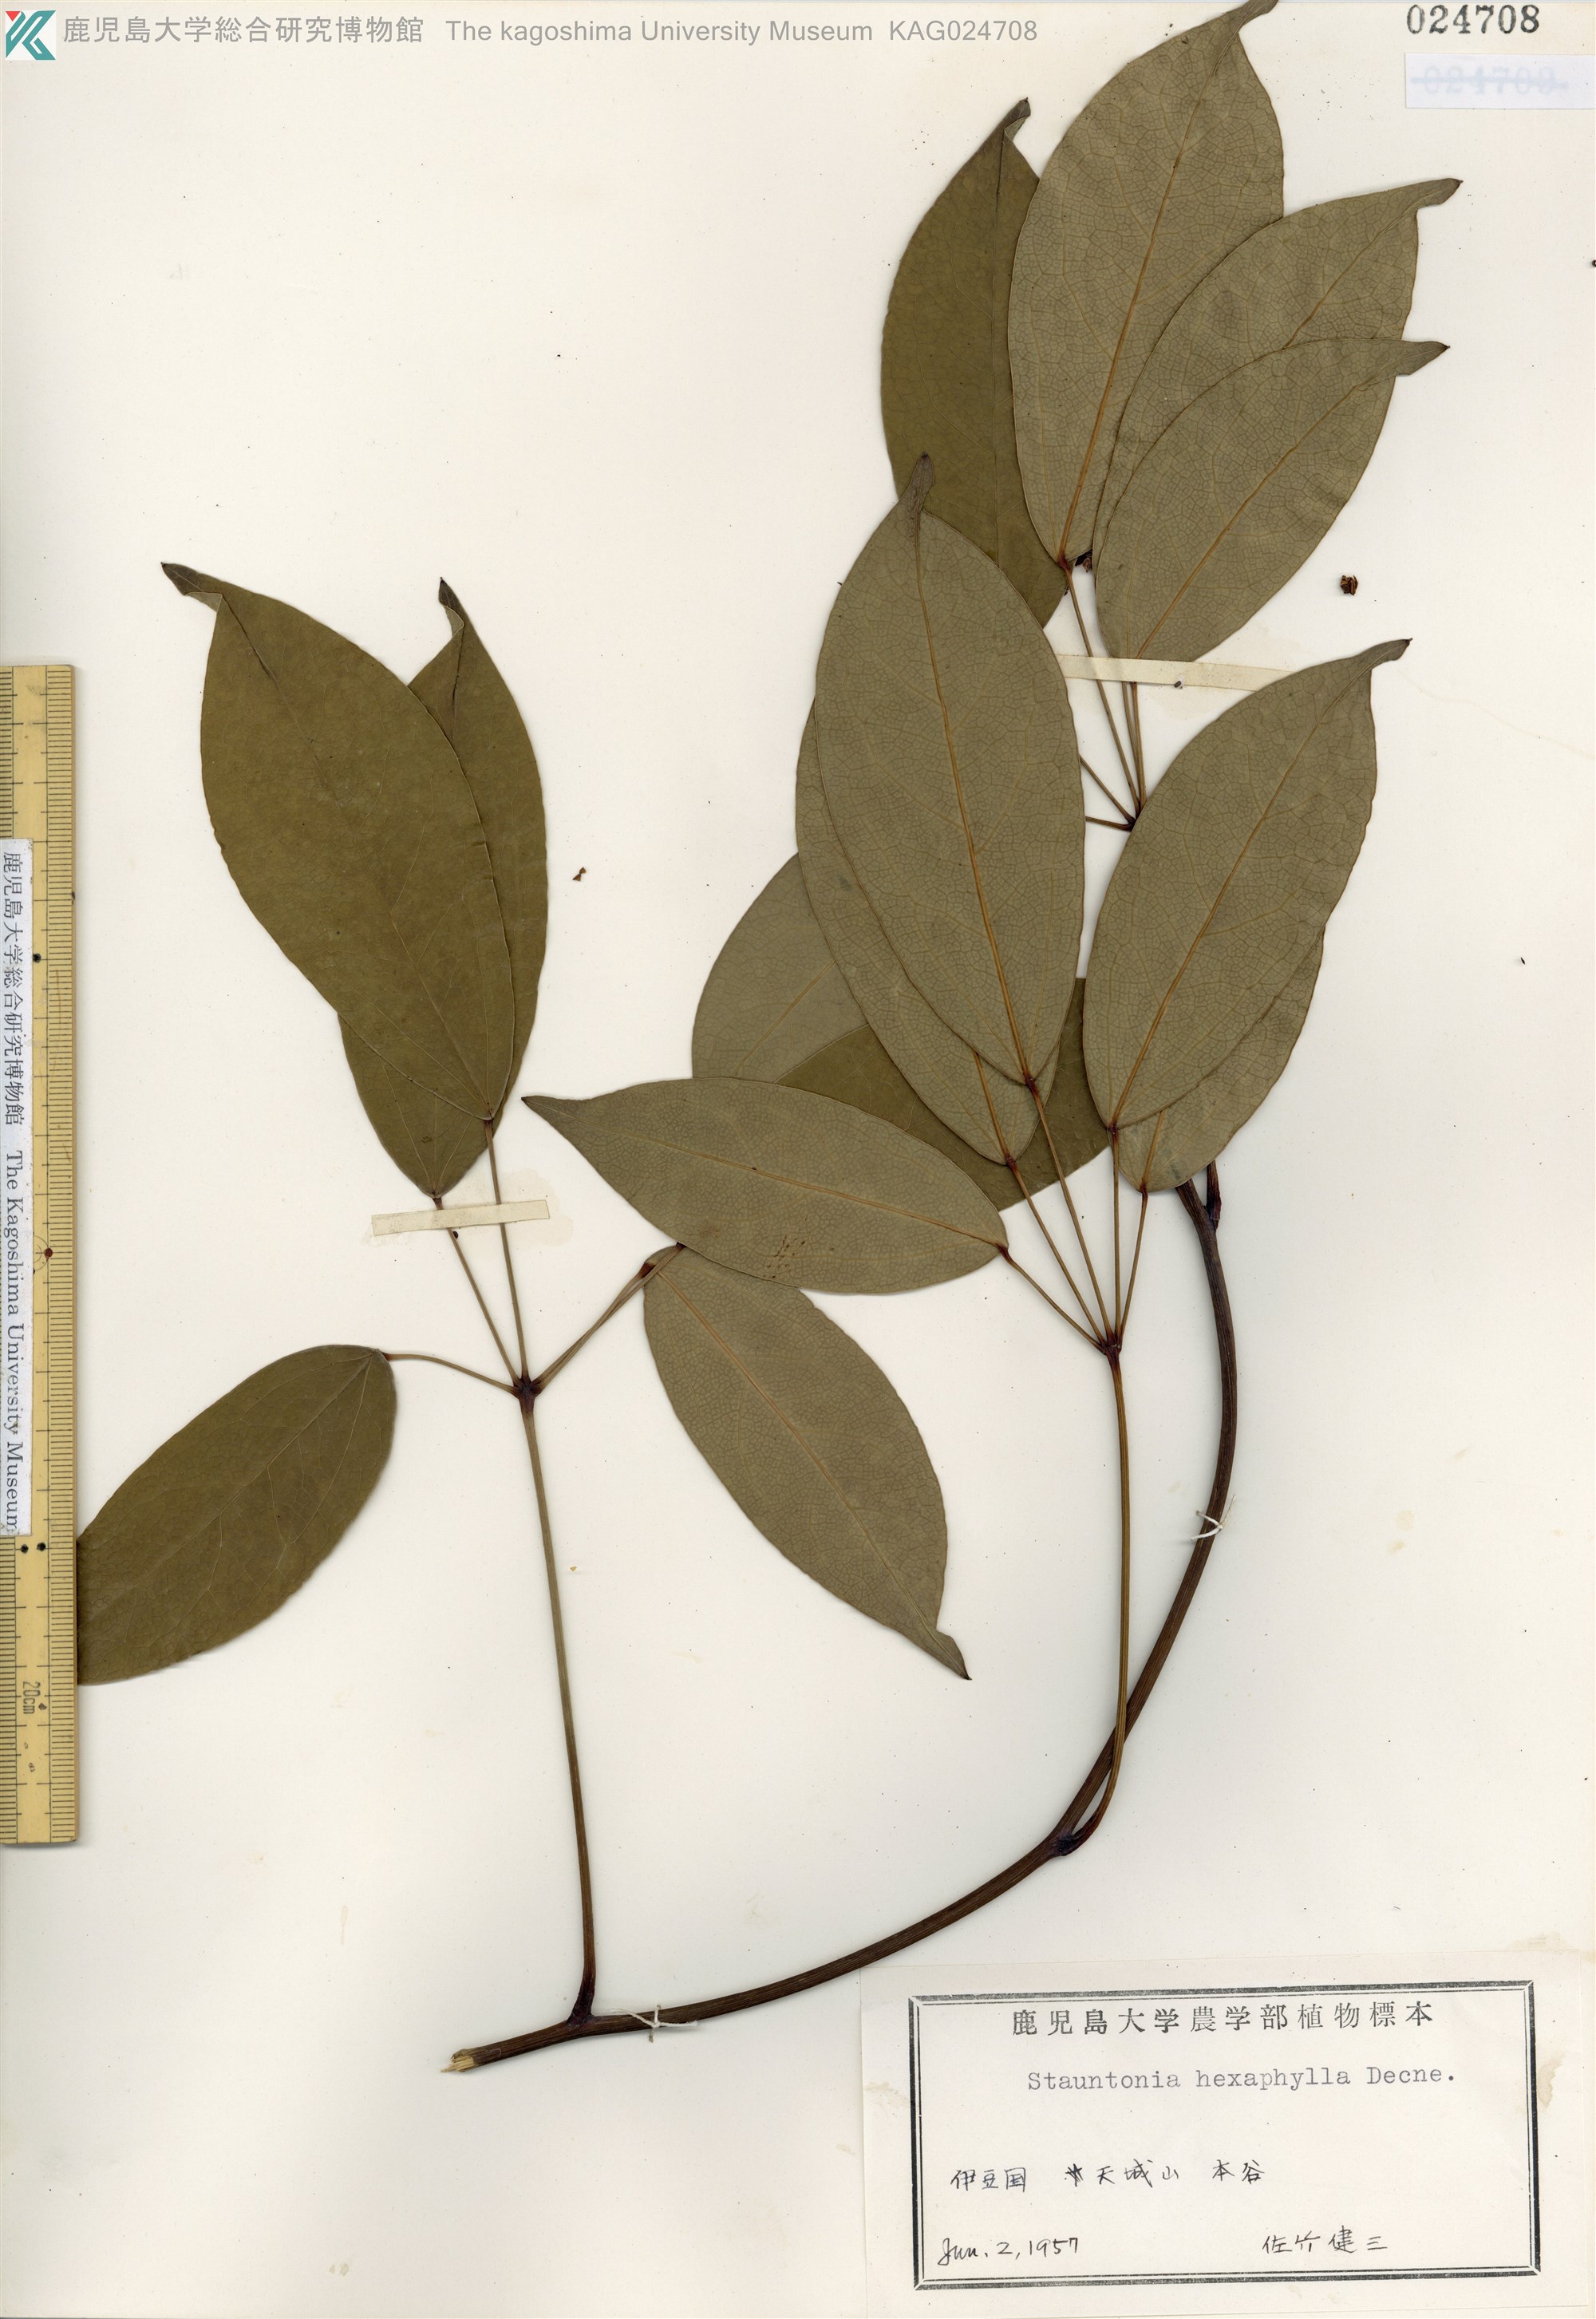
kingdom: Plantae
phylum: Tracheophyta
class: Magnoliopsida
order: Ranunculales
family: Lardizabalaceae
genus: Stauntonia
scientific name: Stauntonia hexaphylla
